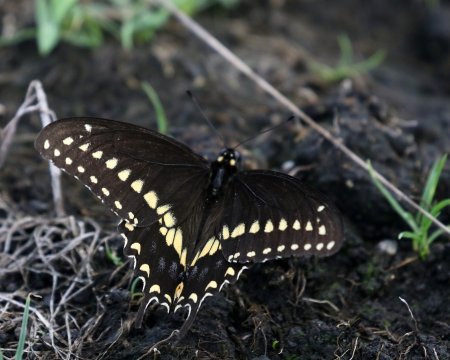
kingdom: Animalia
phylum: Arthropoda
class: Insecta
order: Lepidoptera
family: Papilionidae
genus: Papilio
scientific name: Papilio polyxenes
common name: Black Swallowtail
